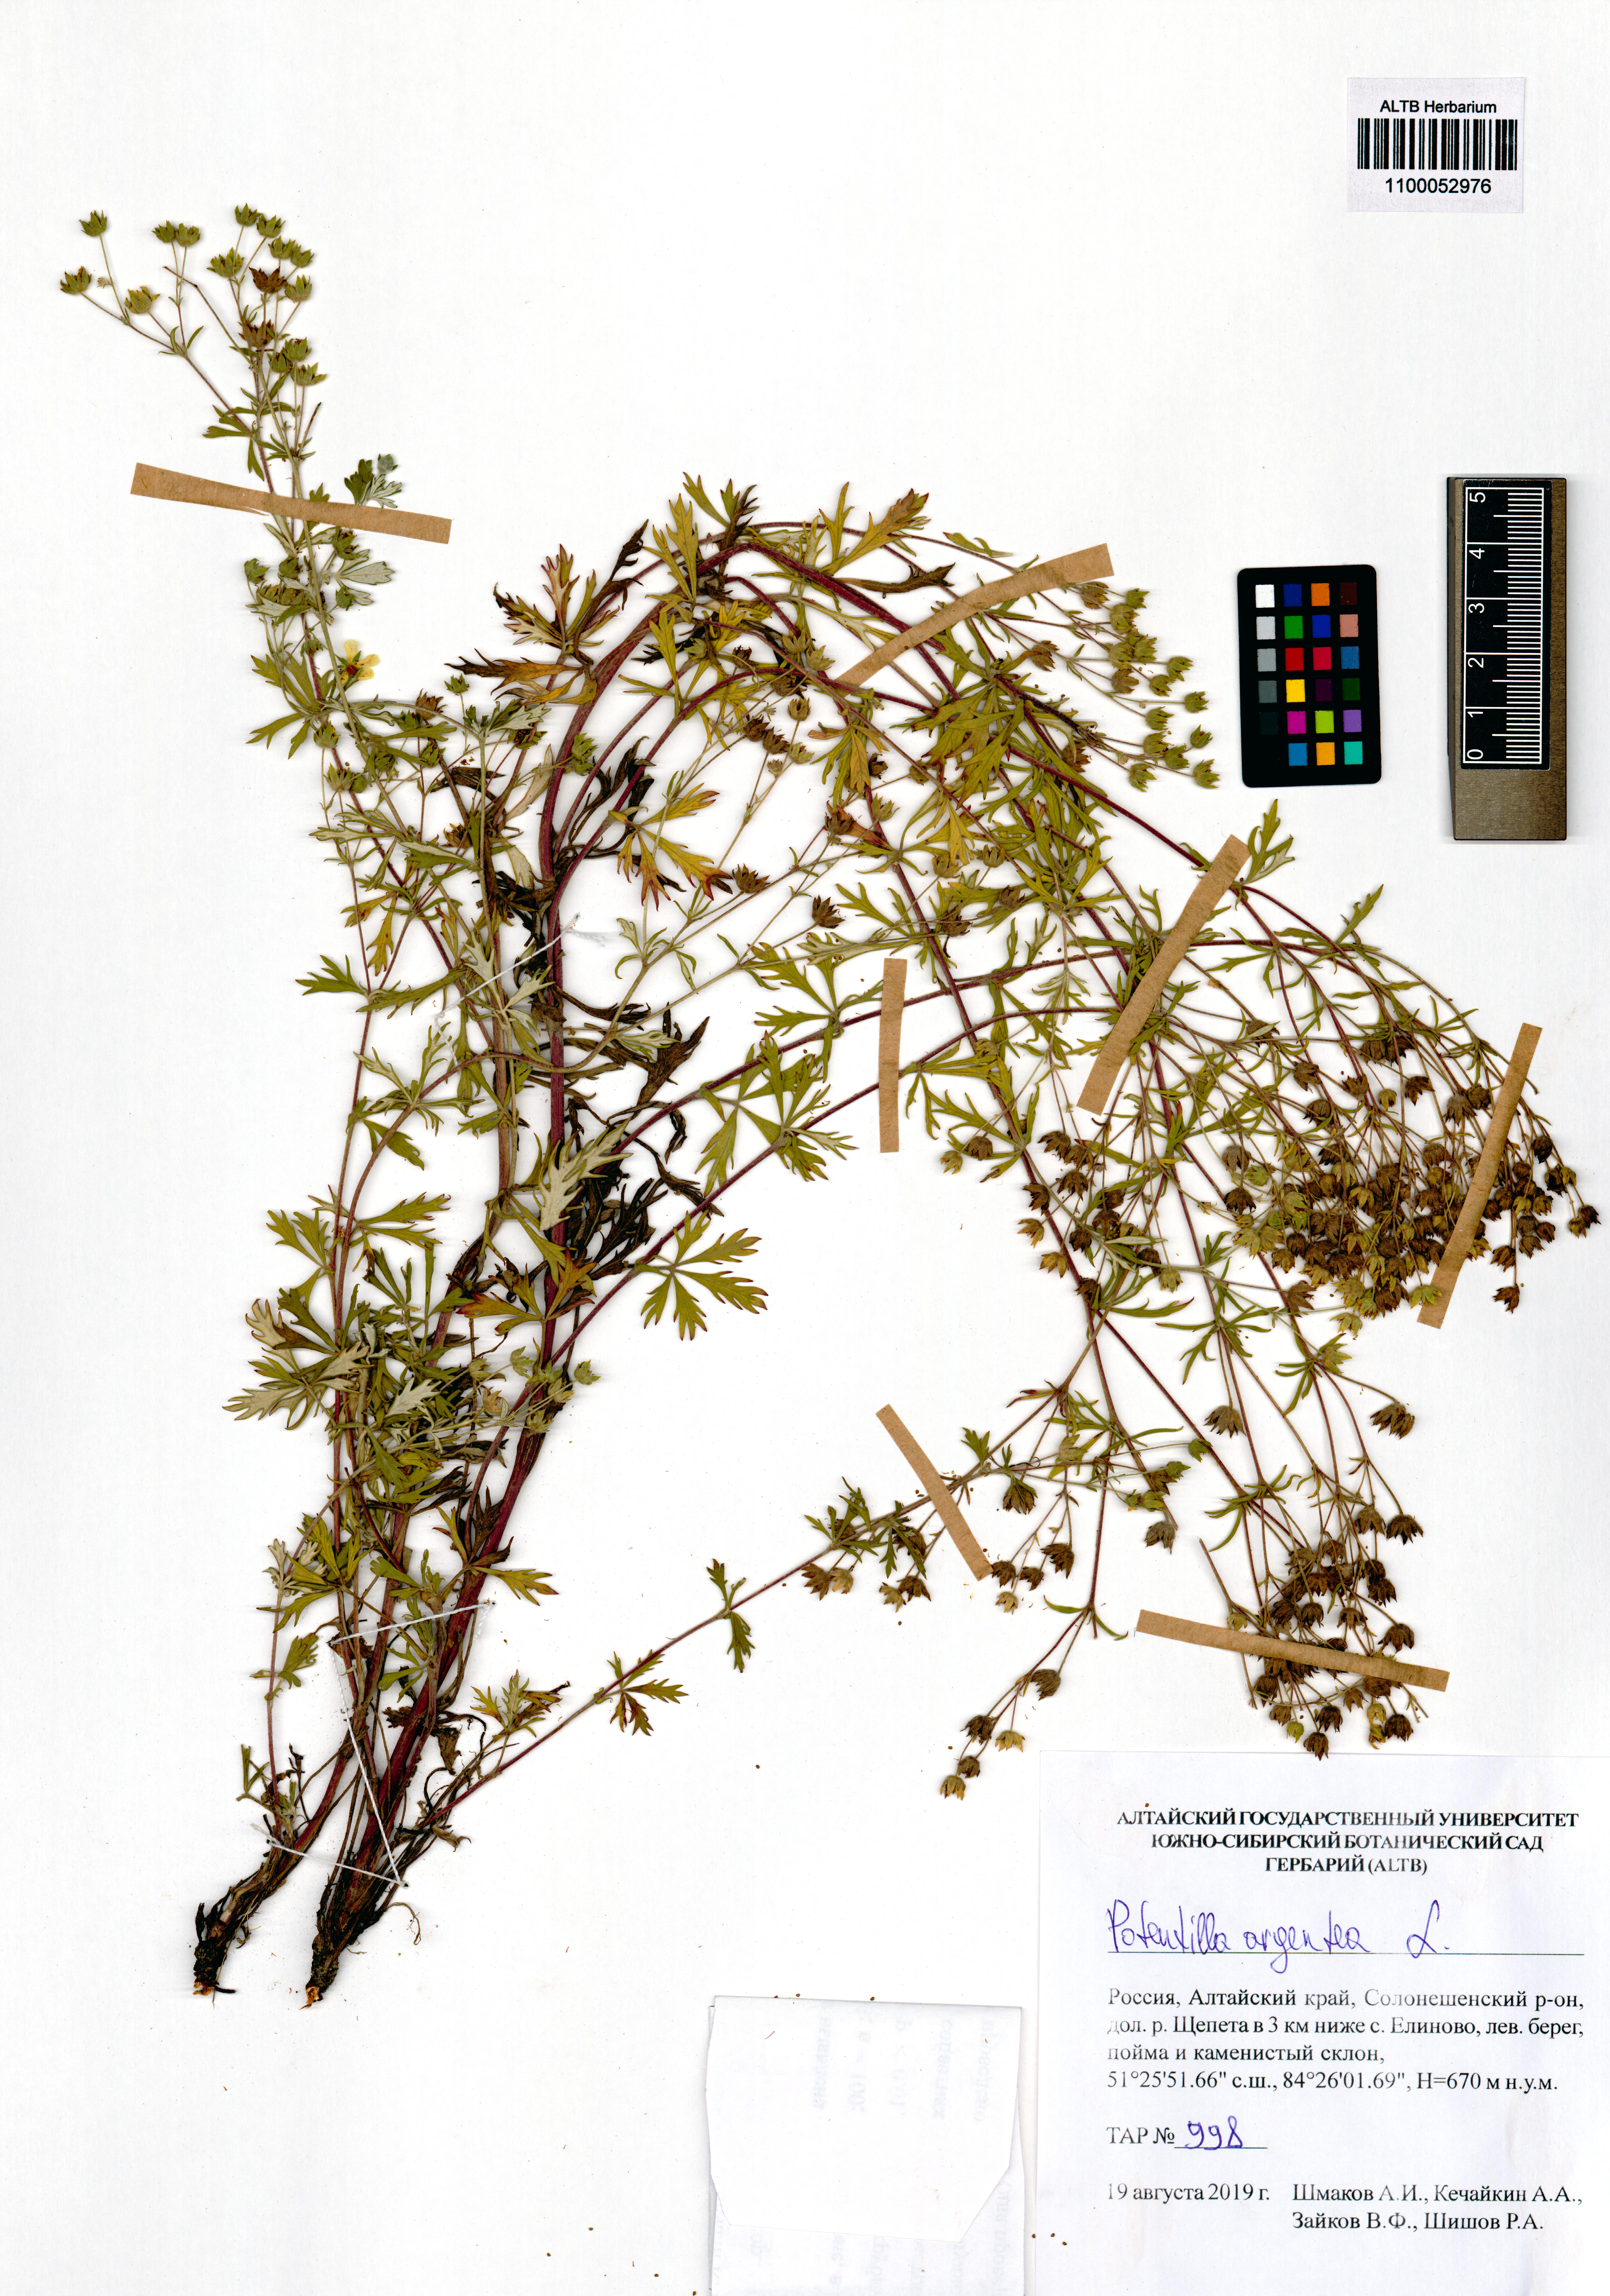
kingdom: Plantae
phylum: Tracheophyta
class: Magnoliopsida
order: Rosales
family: Rosaceae
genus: Potentilla
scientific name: Potentilla argentea
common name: Hoary cinquefoil
